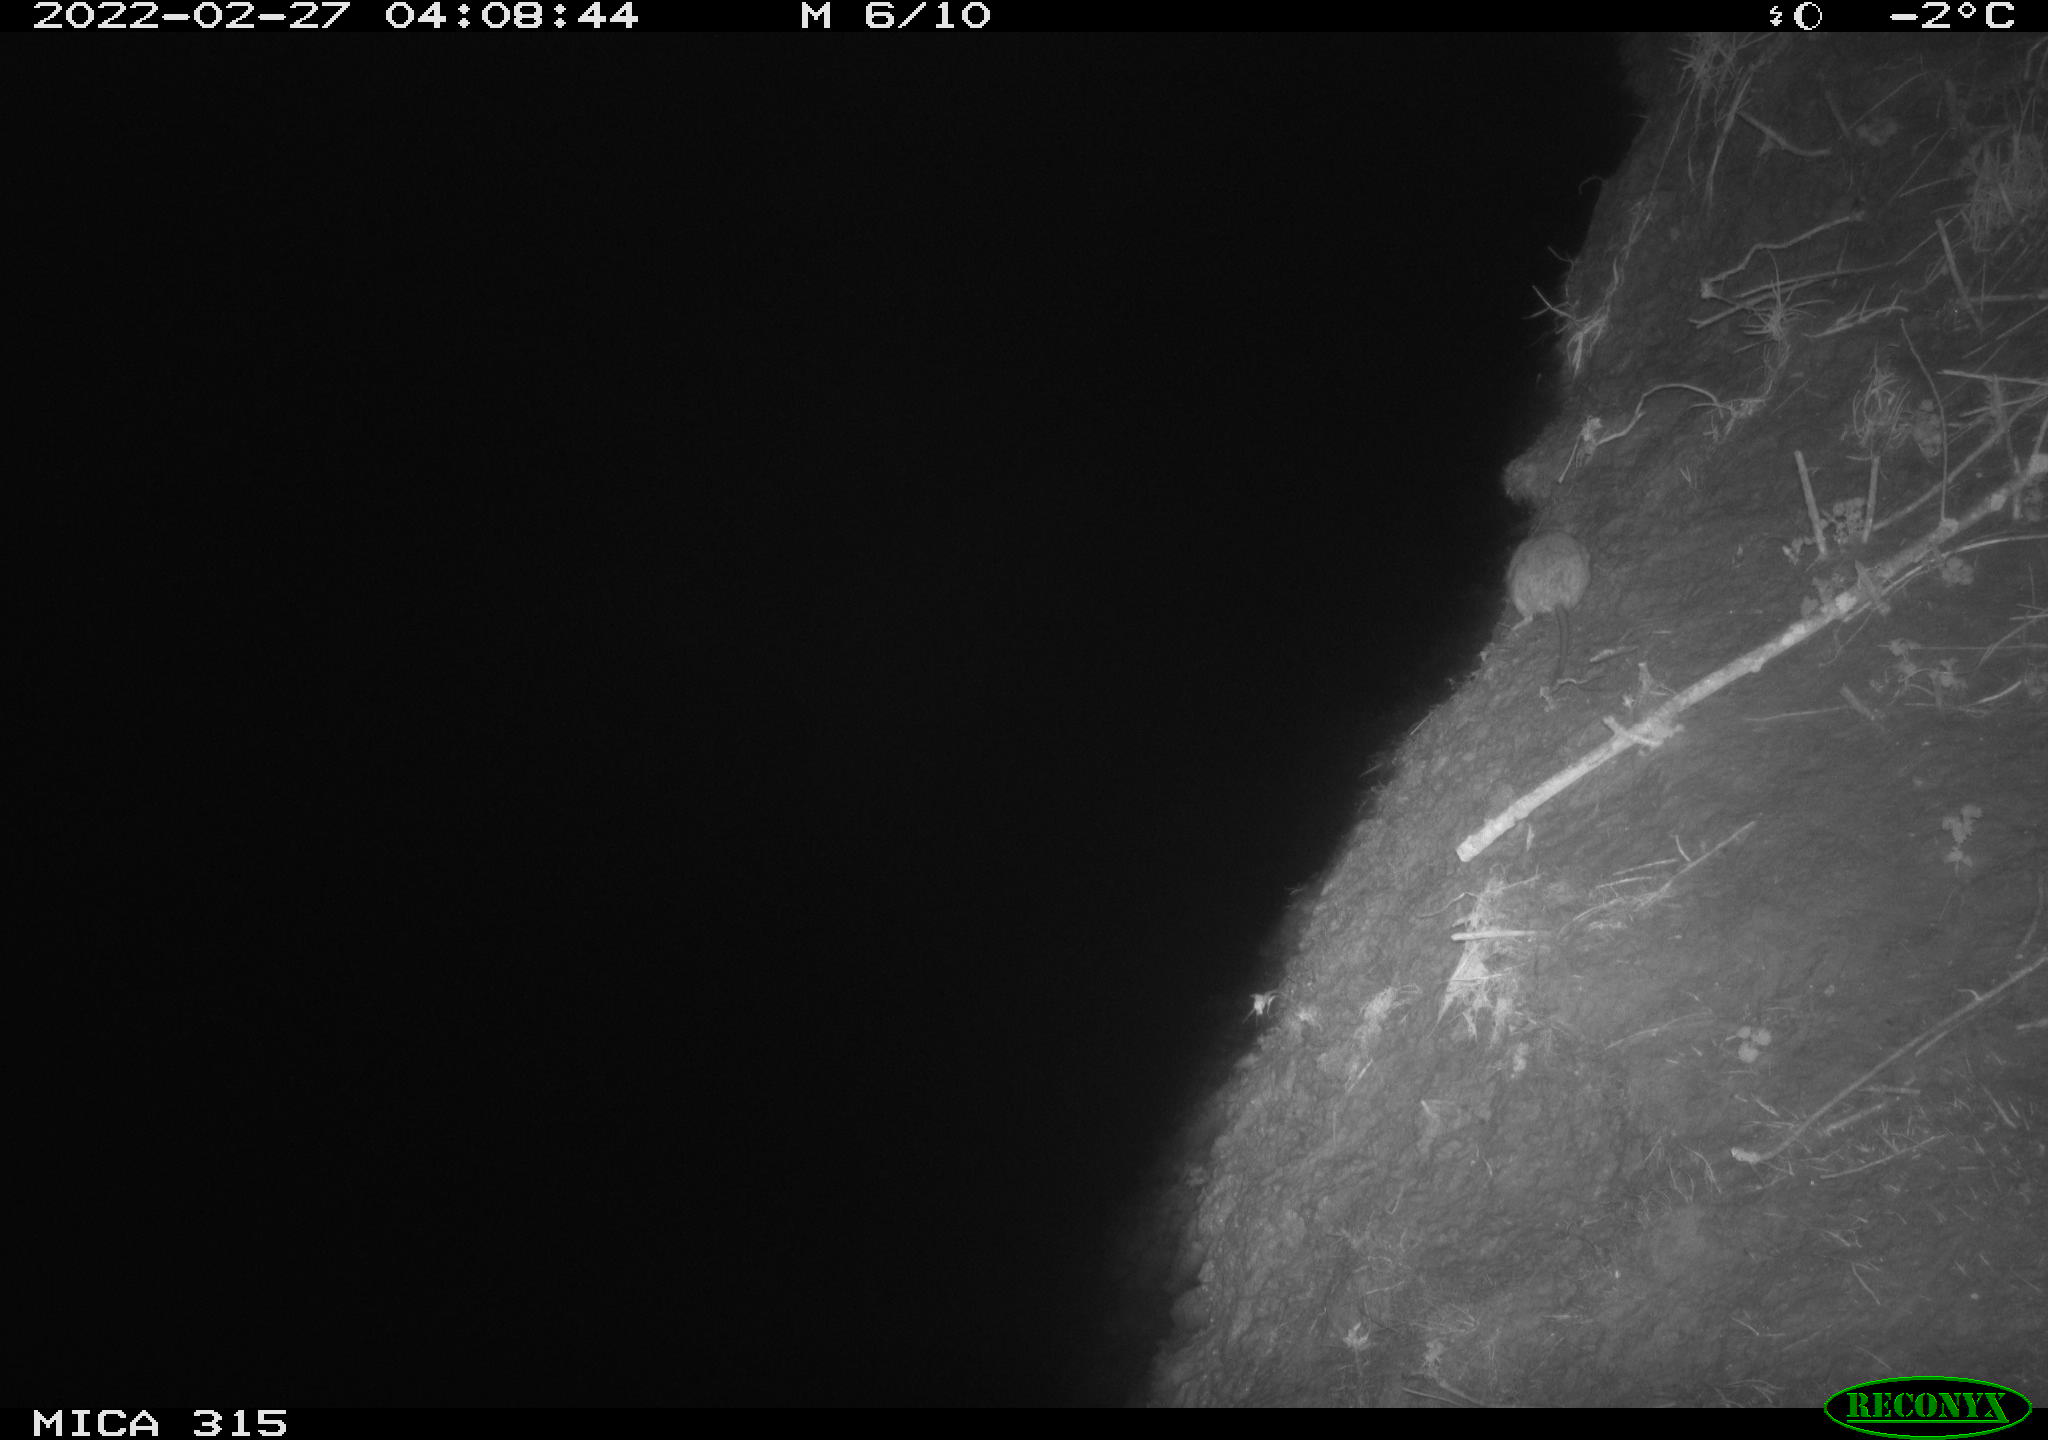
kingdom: Animalia
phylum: Chordata
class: Mammalia
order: Rodentia
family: Muridae
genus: Rattus
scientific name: Rattus norvegicus
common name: Brown rat
